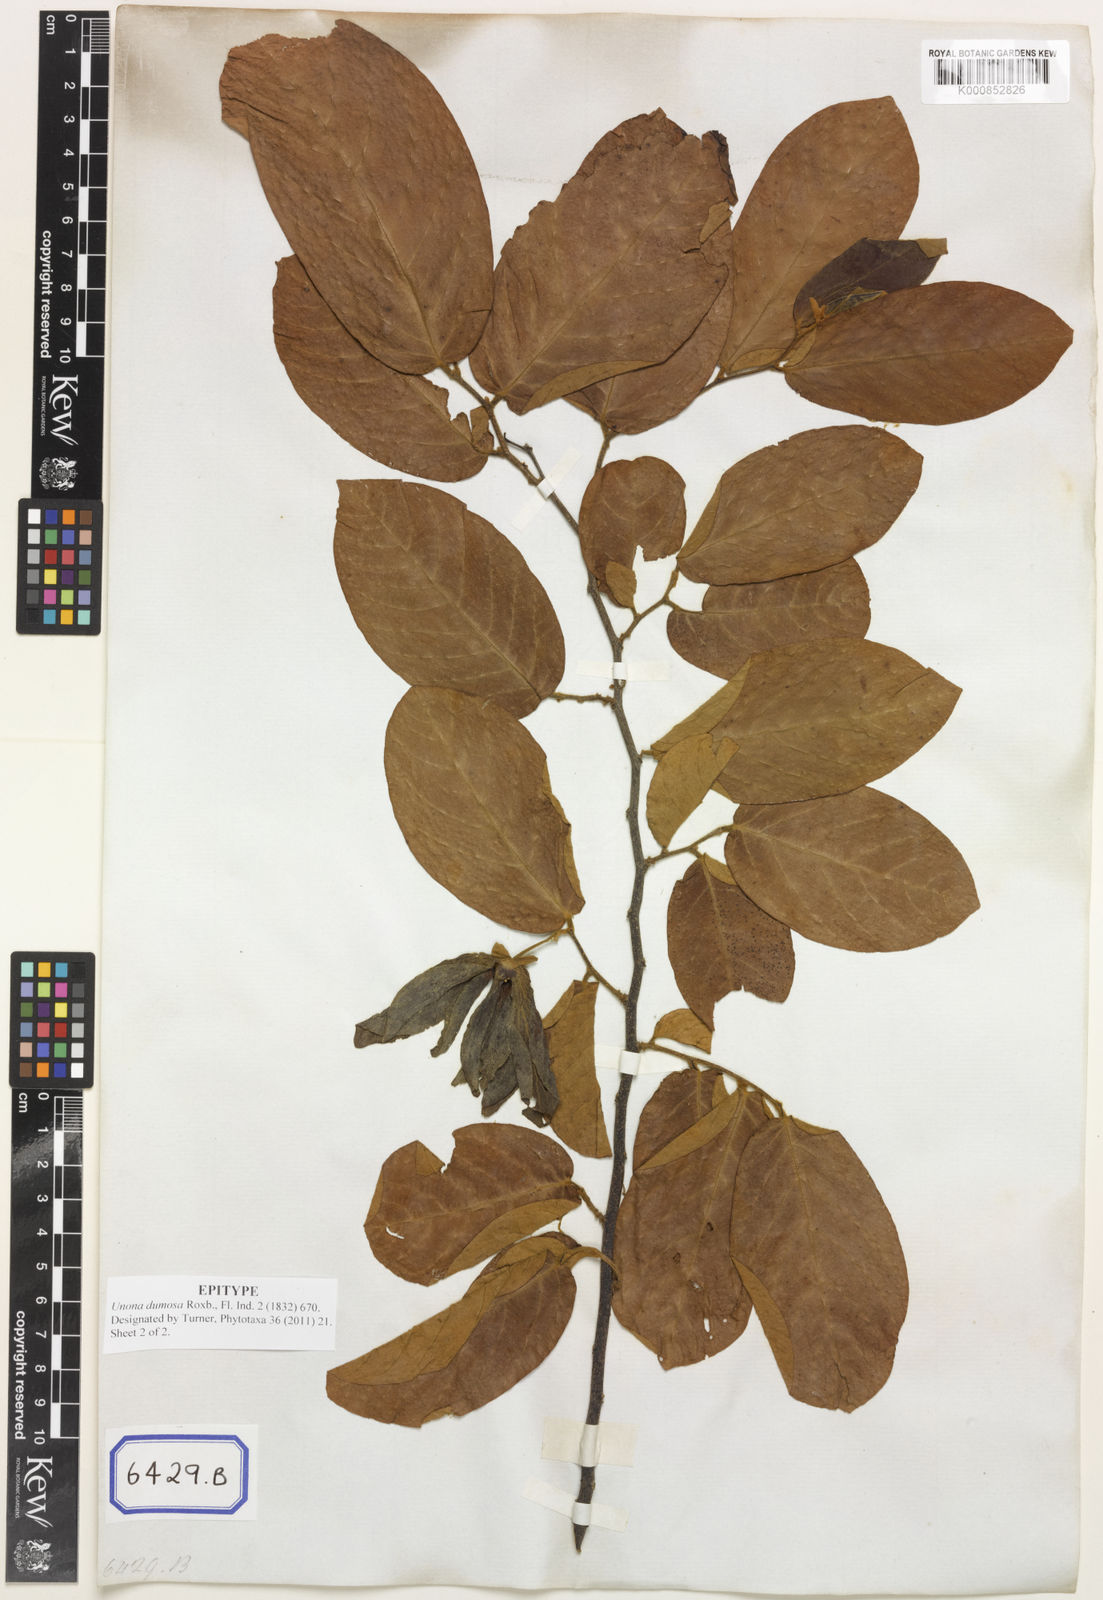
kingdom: Plantae
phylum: Tracheophyta
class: Magnoliopsida
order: Magnoliales
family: Annonaceae
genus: Desmos
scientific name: Desmos dumosus
